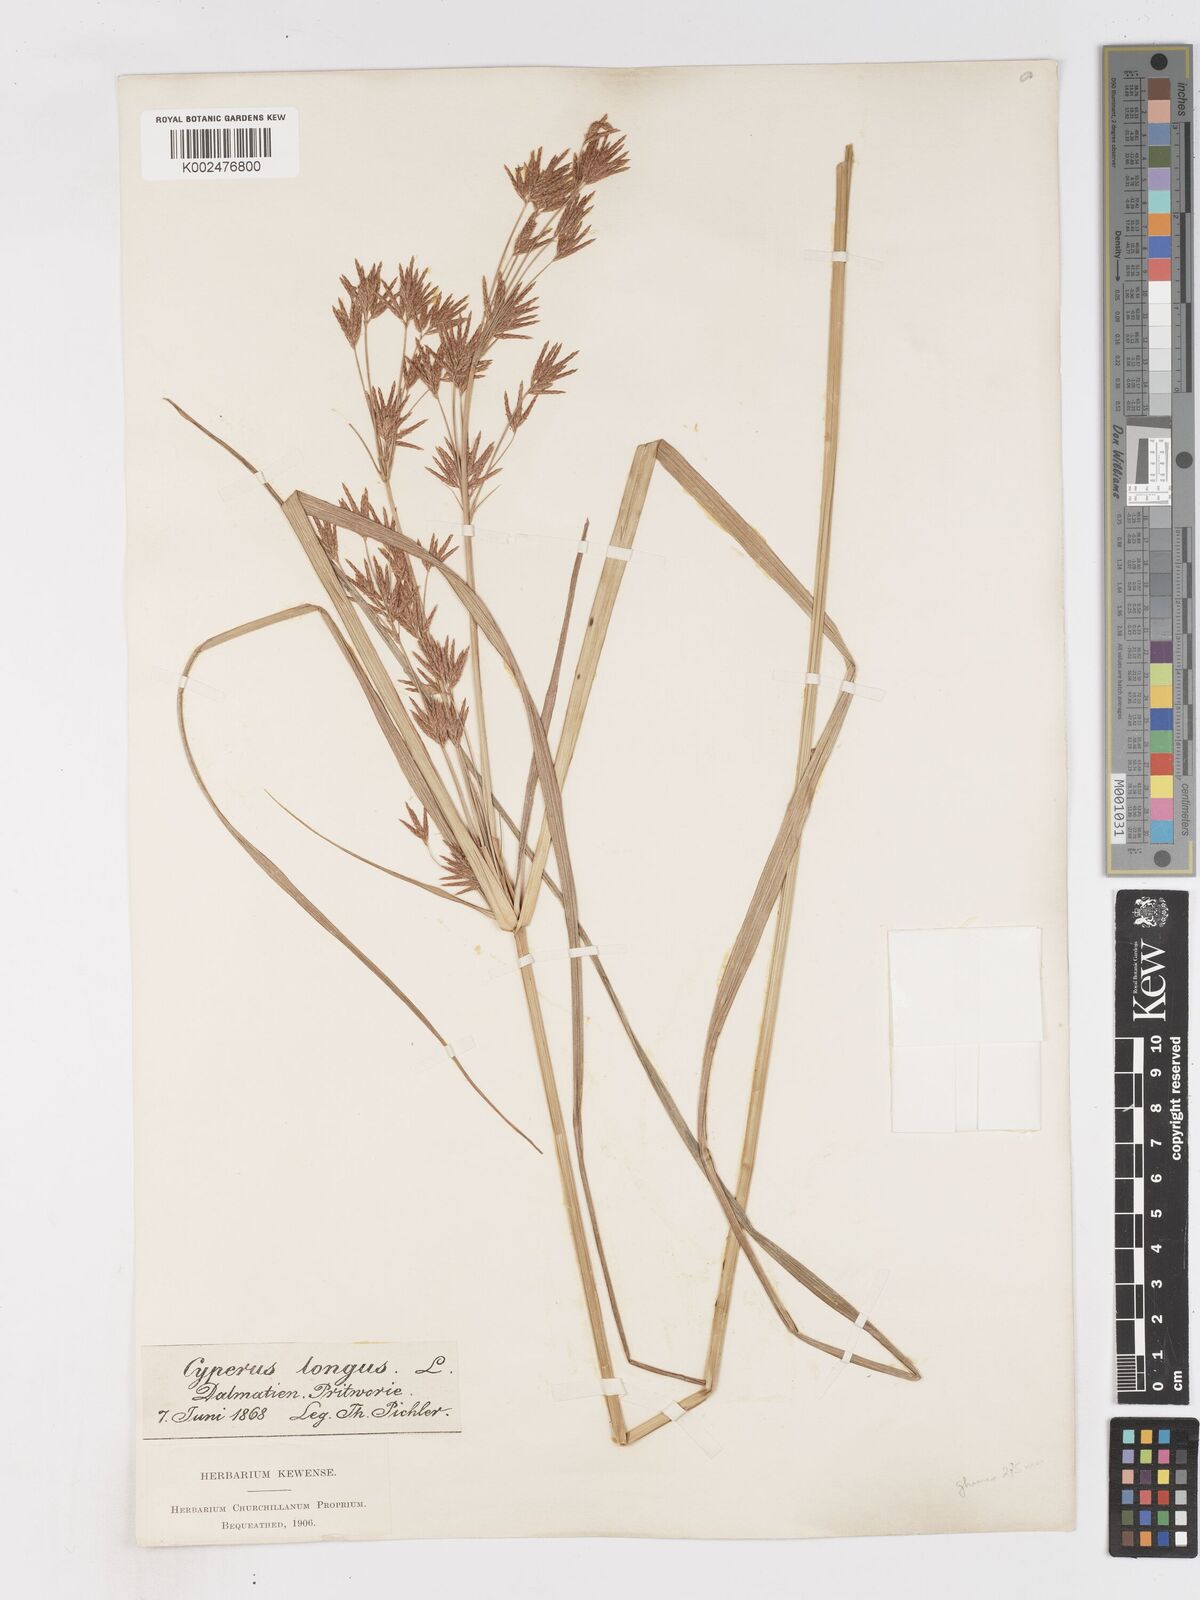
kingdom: Plantae
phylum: Tracheophyta
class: Liliopsida
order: Poales
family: Cyperaceae
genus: Cyperus
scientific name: Cyperus longus
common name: Galingale
